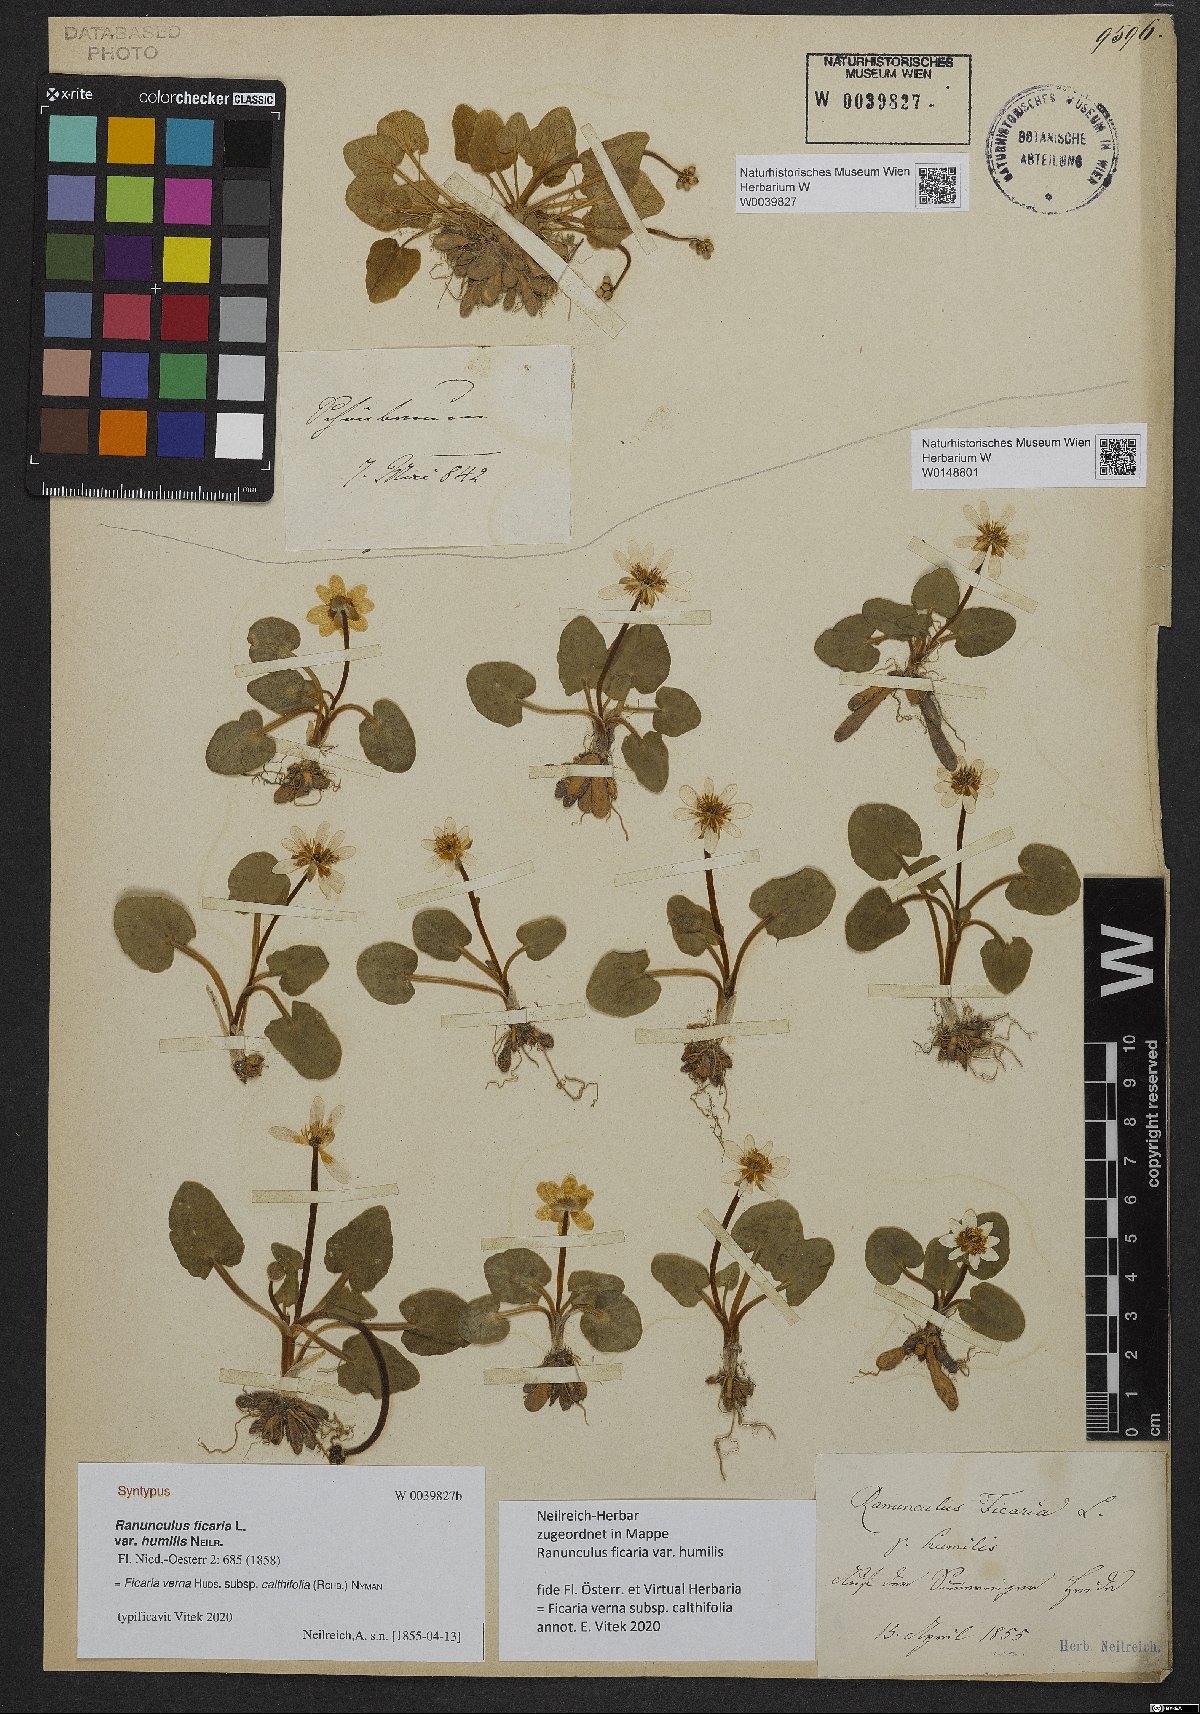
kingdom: Plantae
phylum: Tracheophyta
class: Magnoliopsida
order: Ranunculales
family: Ranunculaceae
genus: Ficaria
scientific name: Ficaria calthifolia
